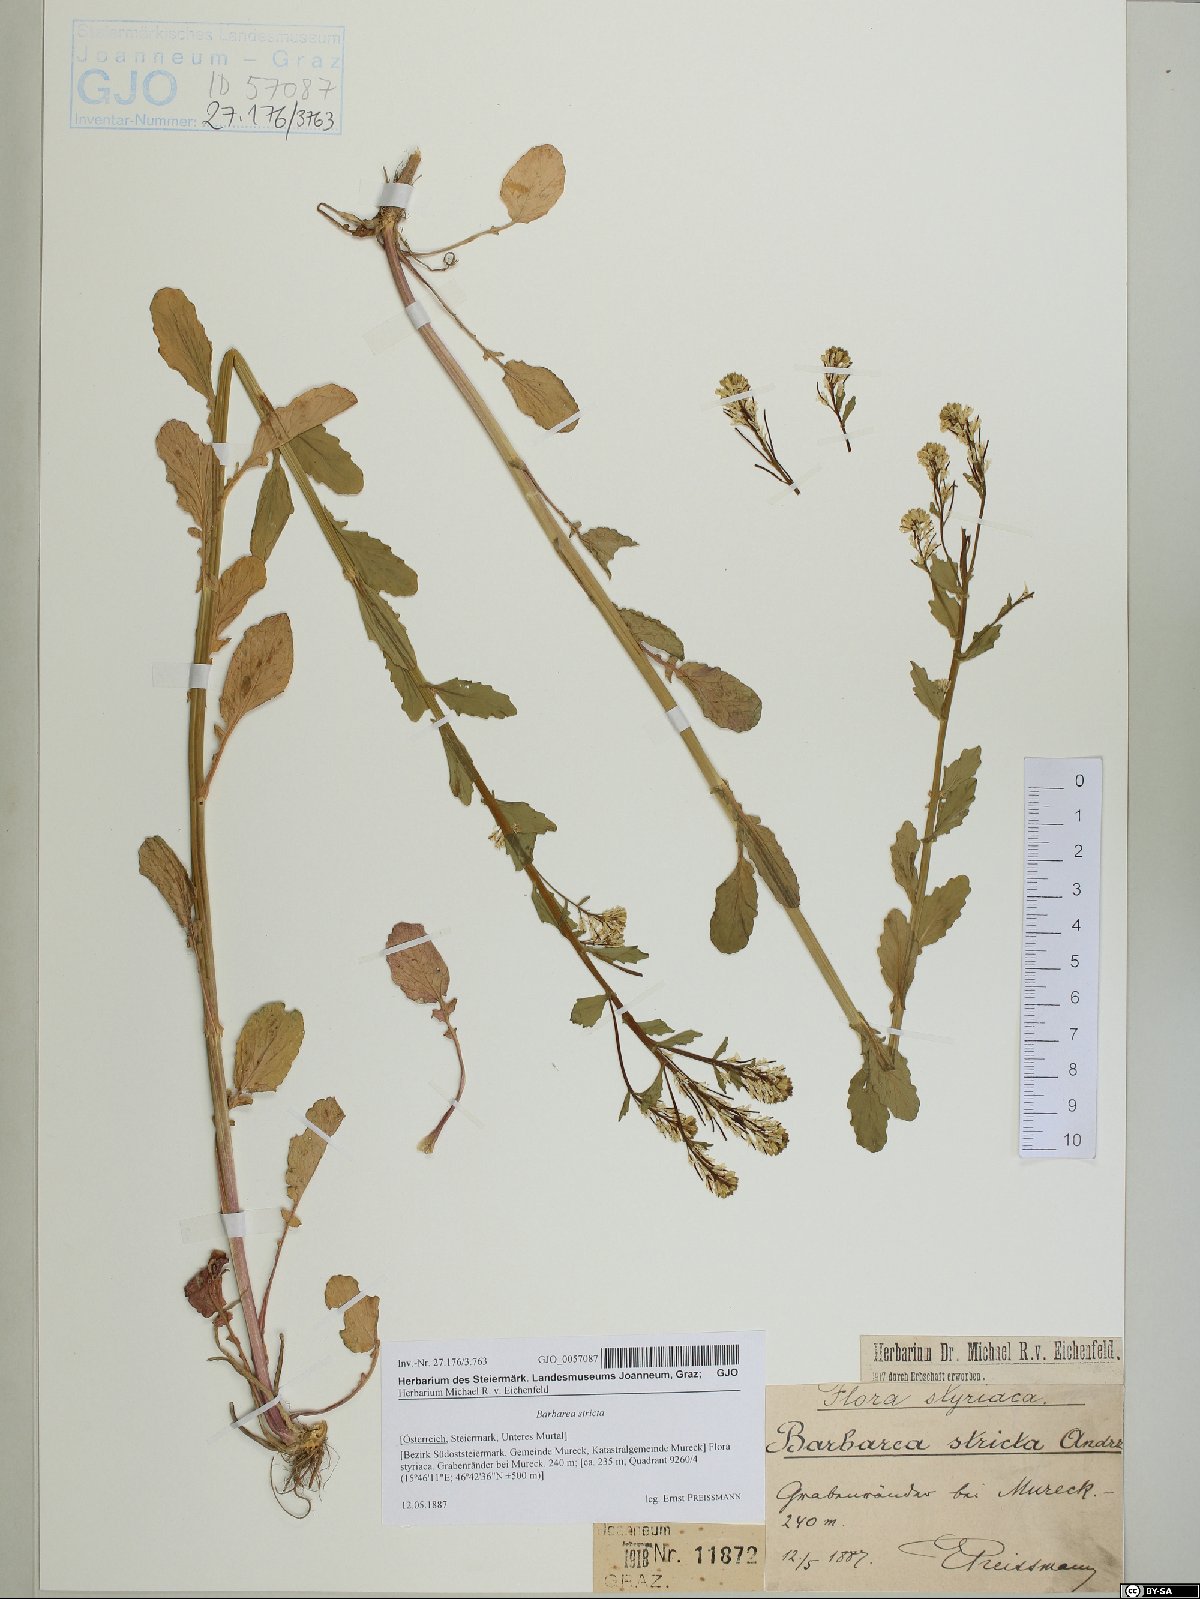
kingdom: Plantae
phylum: Tracheophyta
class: Magnoliopsida
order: Brassicales
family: Brassicaceae
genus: Barbarea
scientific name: Barbarea stricta
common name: Small-flowered winter-cress
